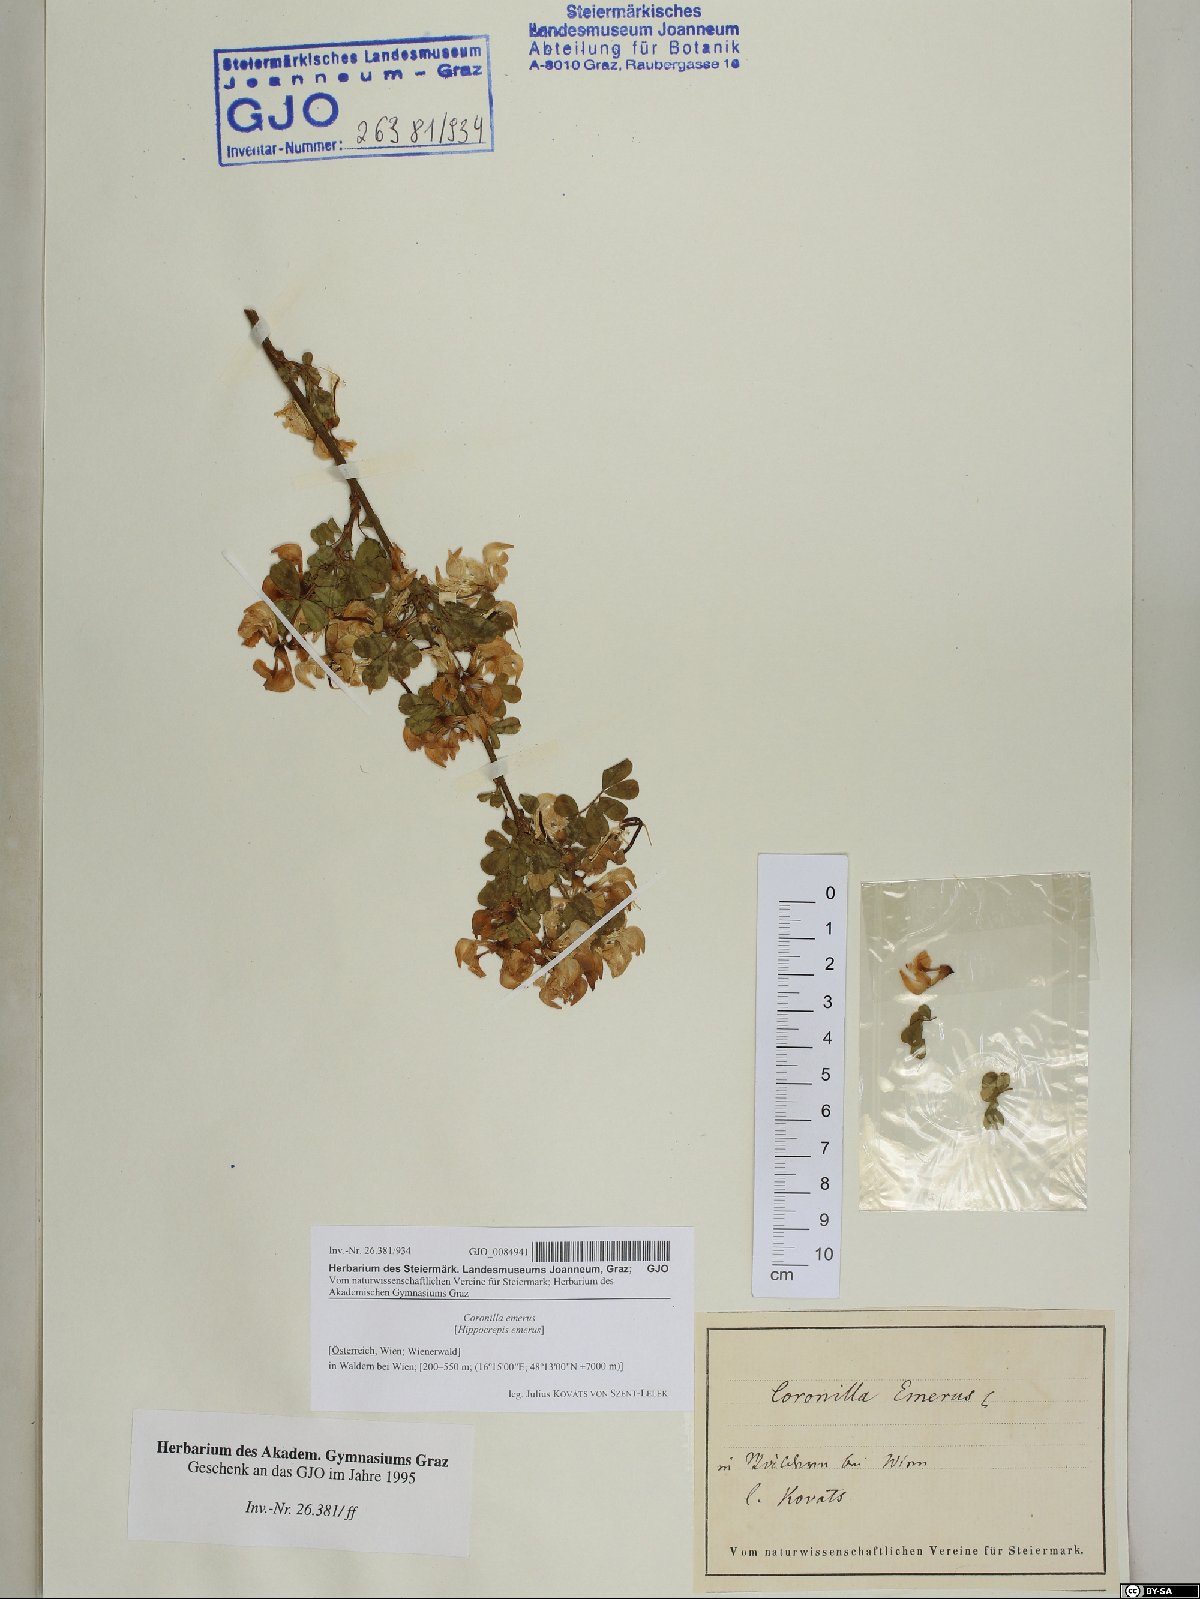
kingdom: Plantae
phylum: Tracheophyta
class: Magnoliopsida
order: Fabales
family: Fabaceae
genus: Hippocrepis
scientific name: Hippocrepis emerus
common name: Scorpion senna
